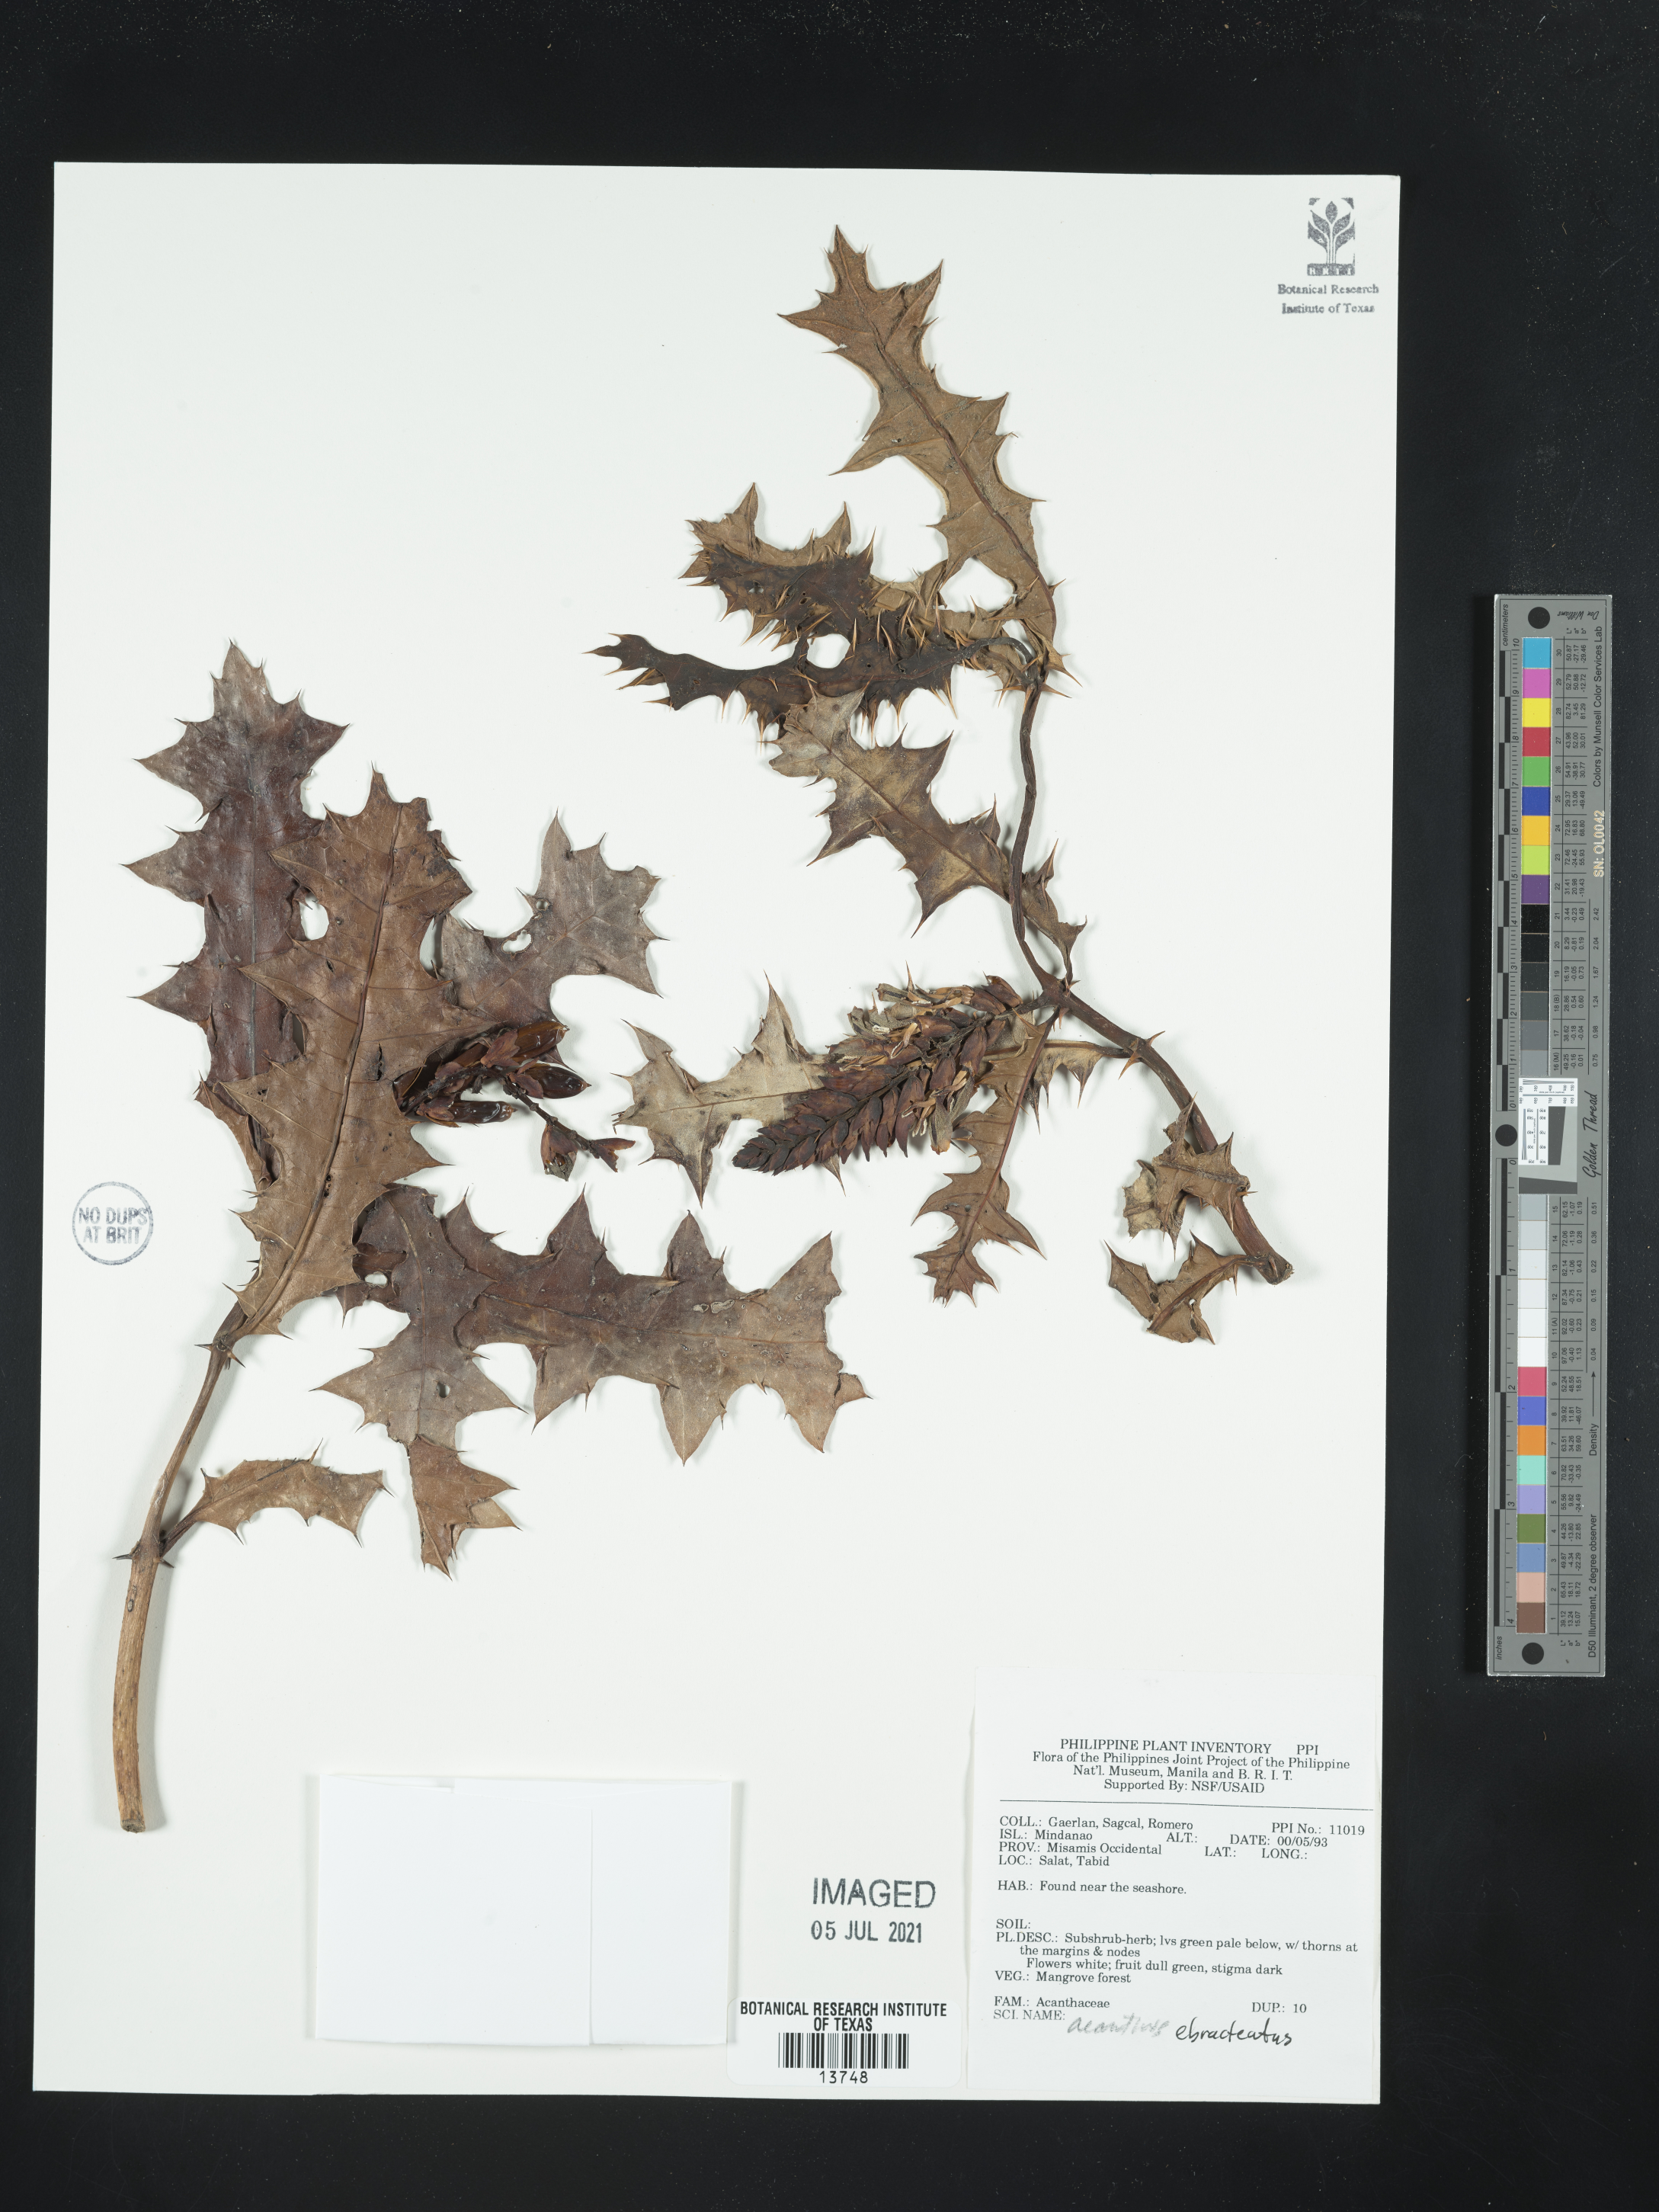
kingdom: Plantae
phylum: Tracheophyta
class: Magnoliopsida
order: Lamiales
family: Acanthaceae
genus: Acanthus
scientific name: Acanthus ebracteatus
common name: Acanthus
